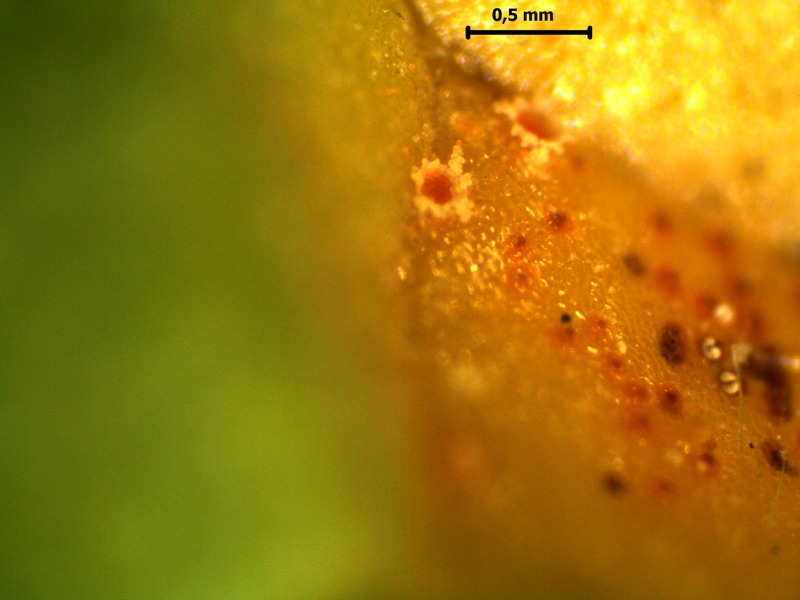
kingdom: Fungi
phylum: Basidiomycota
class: Pucciniomycetes
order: Pucciniales
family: Pucciniaceae
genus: Puccinia
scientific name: Puccinia recondita
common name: Brown rust of wheat
